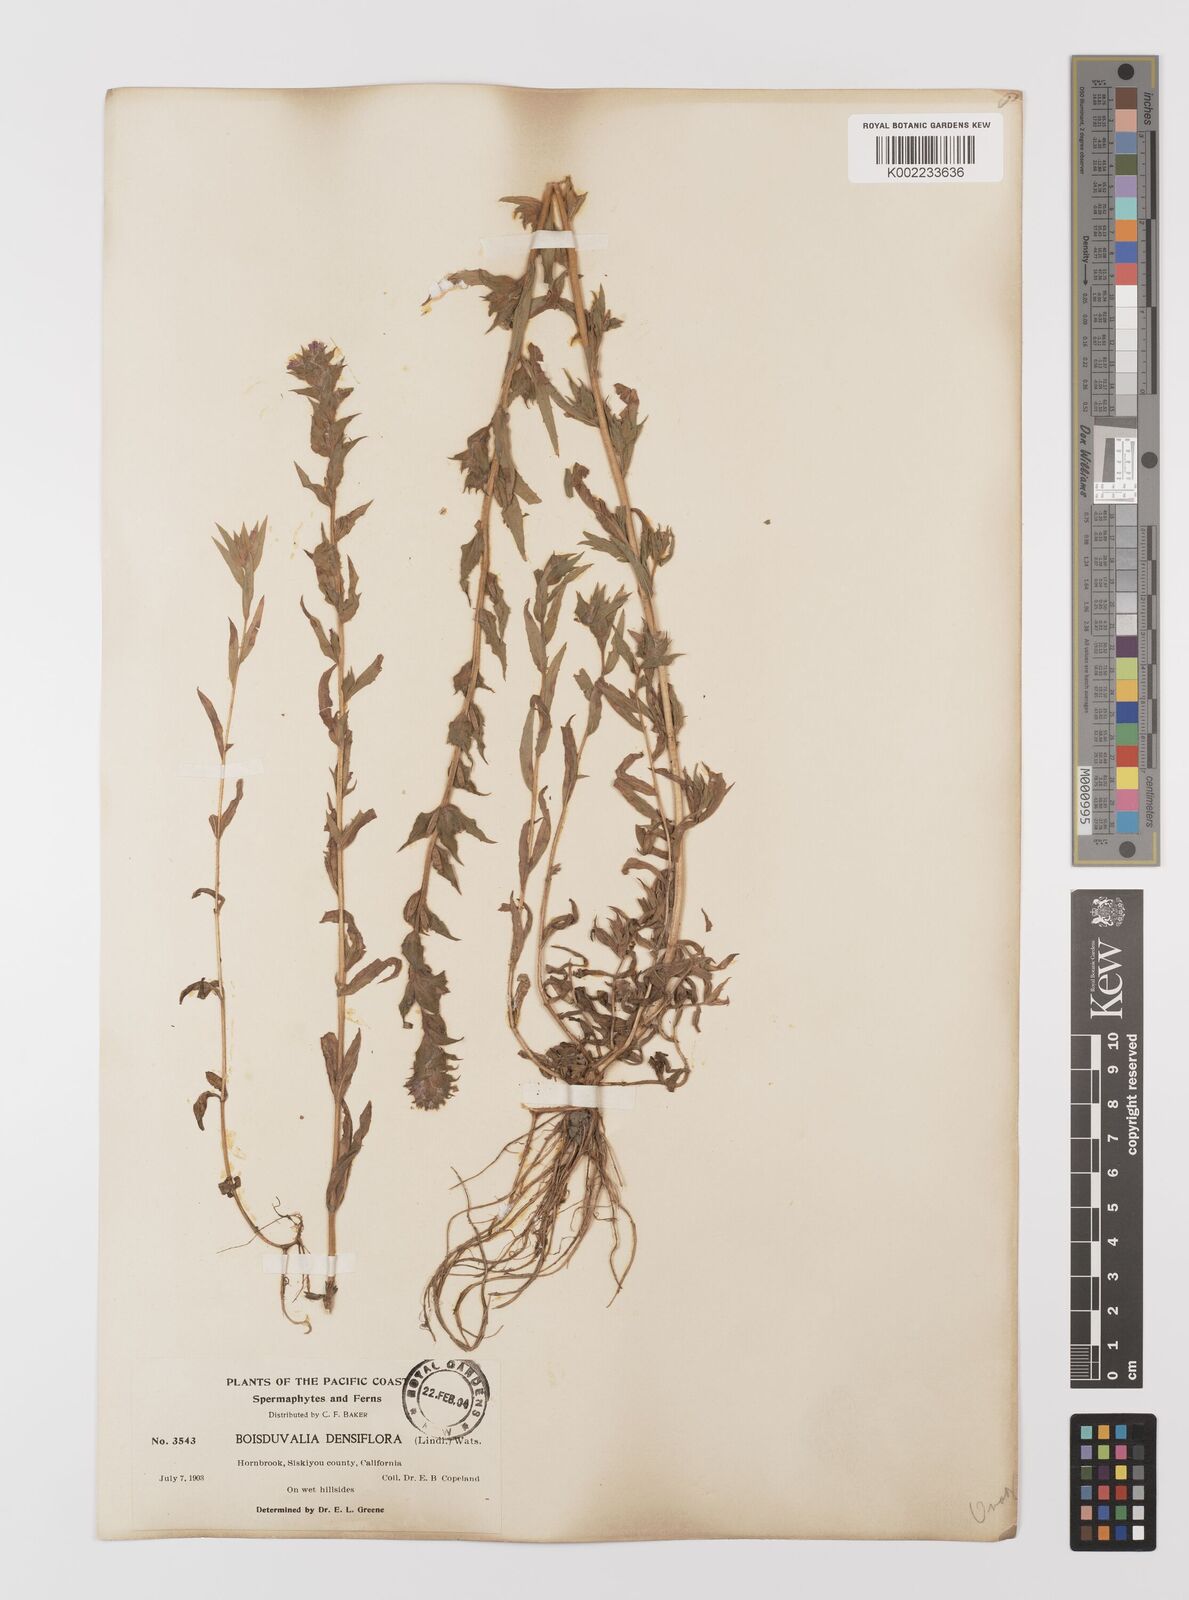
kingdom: Plantae
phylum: Tracheophyta
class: Magnoliopsida
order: Myrtales
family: Onagraceae
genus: Epilobium
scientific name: Epilobium densiflorum
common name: Dense spike-primrose
